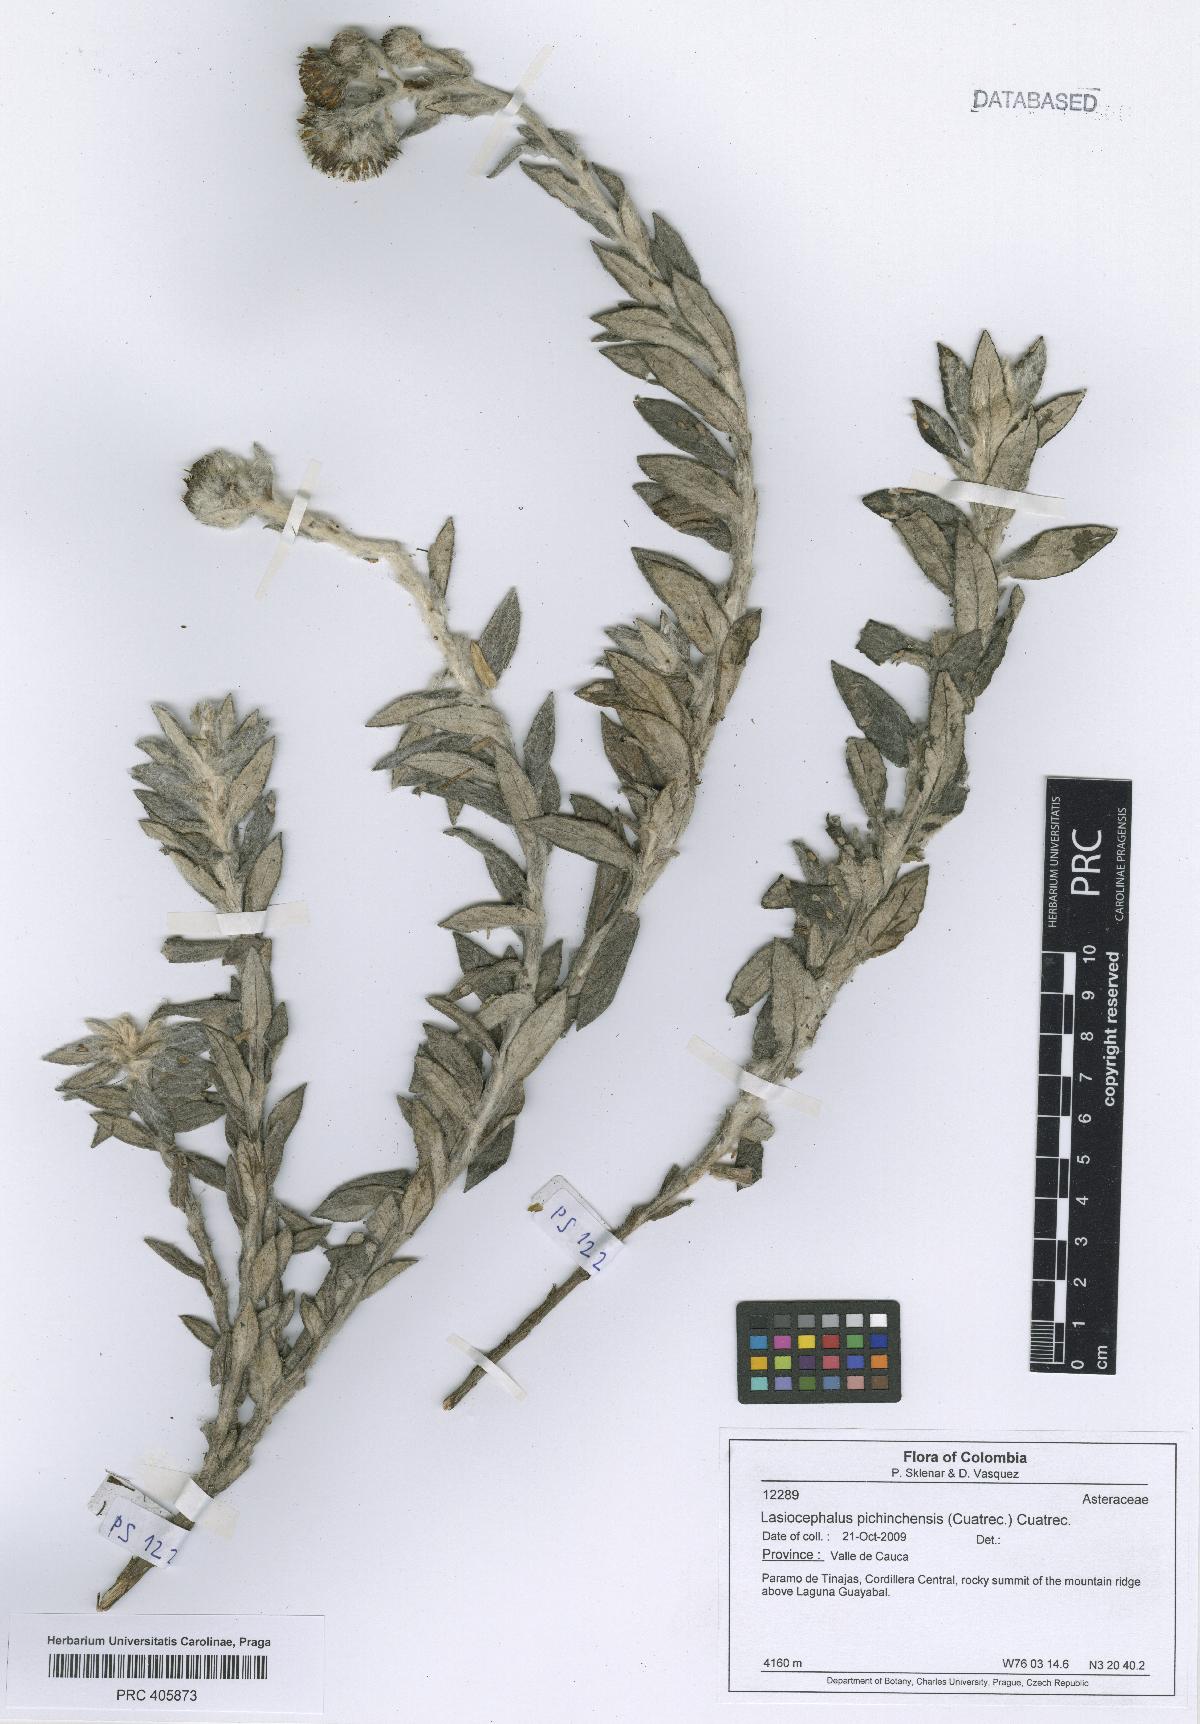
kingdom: Plantae
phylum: Tracheophyta
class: Magnoliopsida
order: Asterales
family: Asteraceae
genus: Lasiocephalus
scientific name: Lasiocephalus lingulatus
